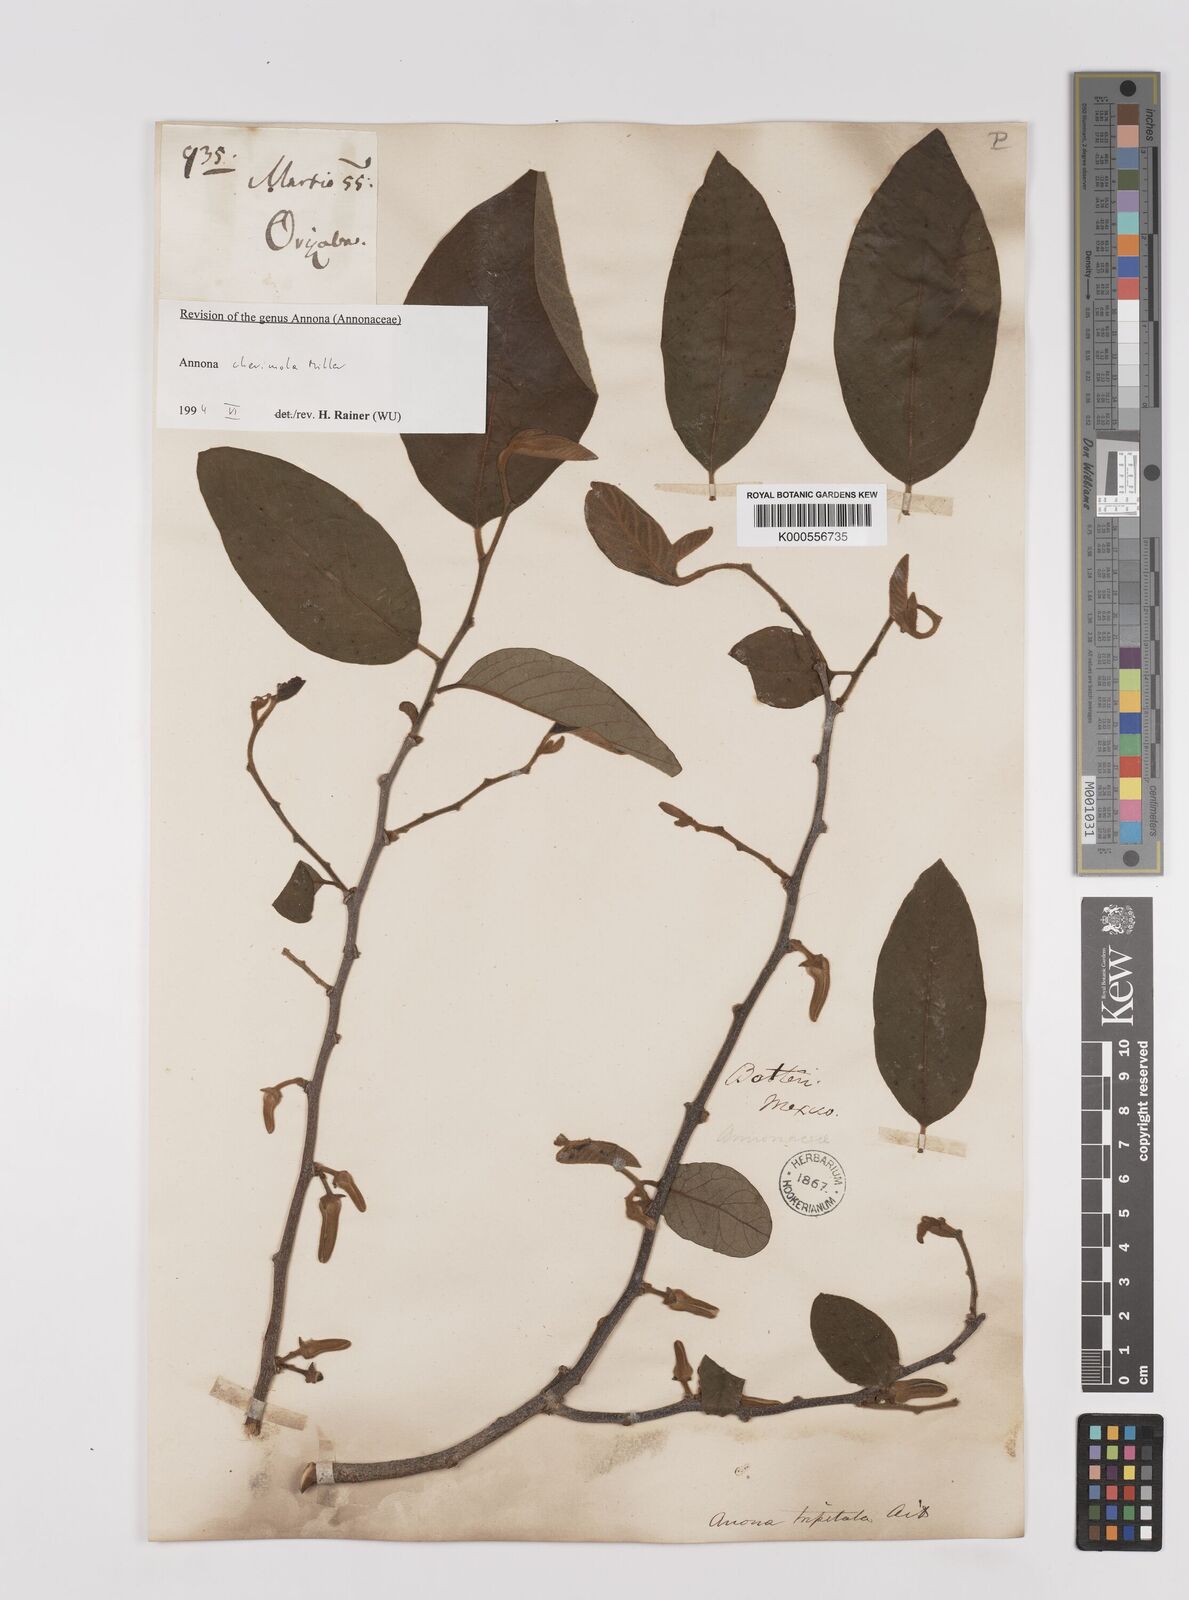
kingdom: Plantae
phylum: Tracheophyta
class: Magnoliopsida
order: Magnoliales
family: Annonaceae
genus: Annona
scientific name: Annona cherimola
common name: Cherimoya
